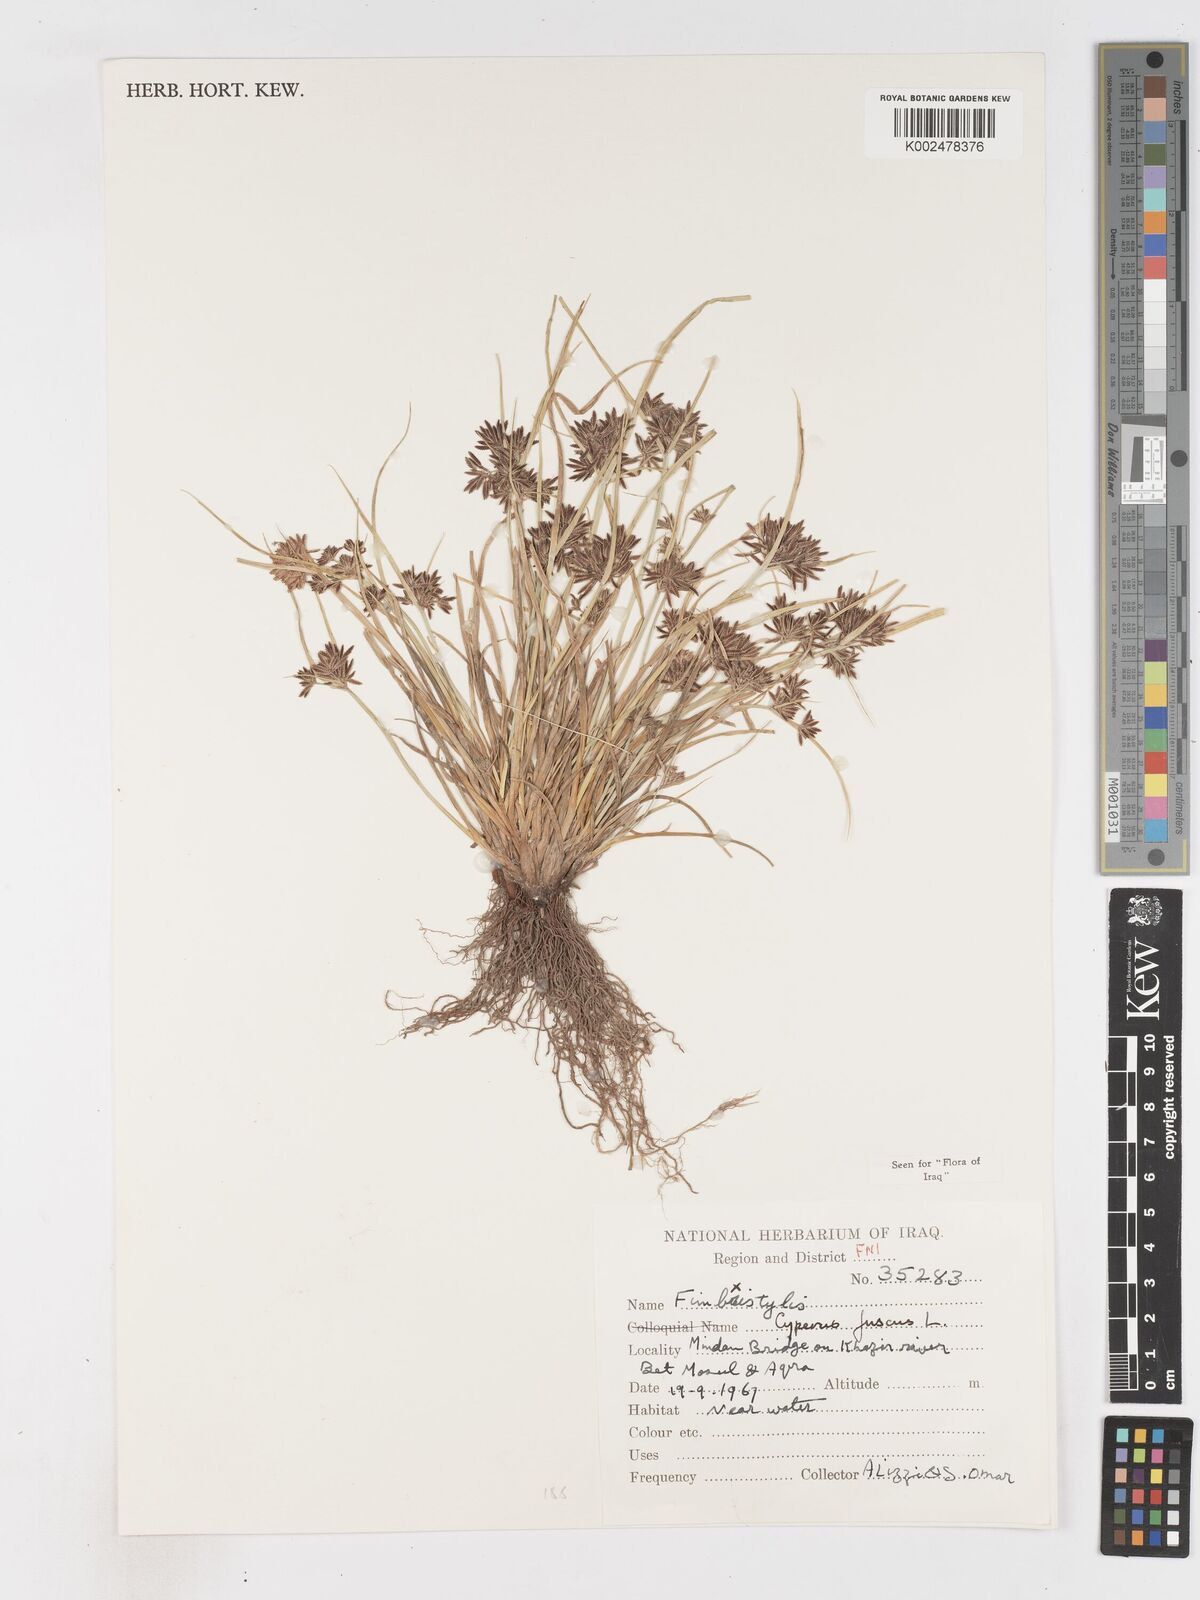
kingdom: Plantae
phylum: Tracheophyta
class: Liliopsida
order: Poales
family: Cyperaceae
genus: Cyperus
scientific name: Cyperus fuscus
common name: Brown galingale
